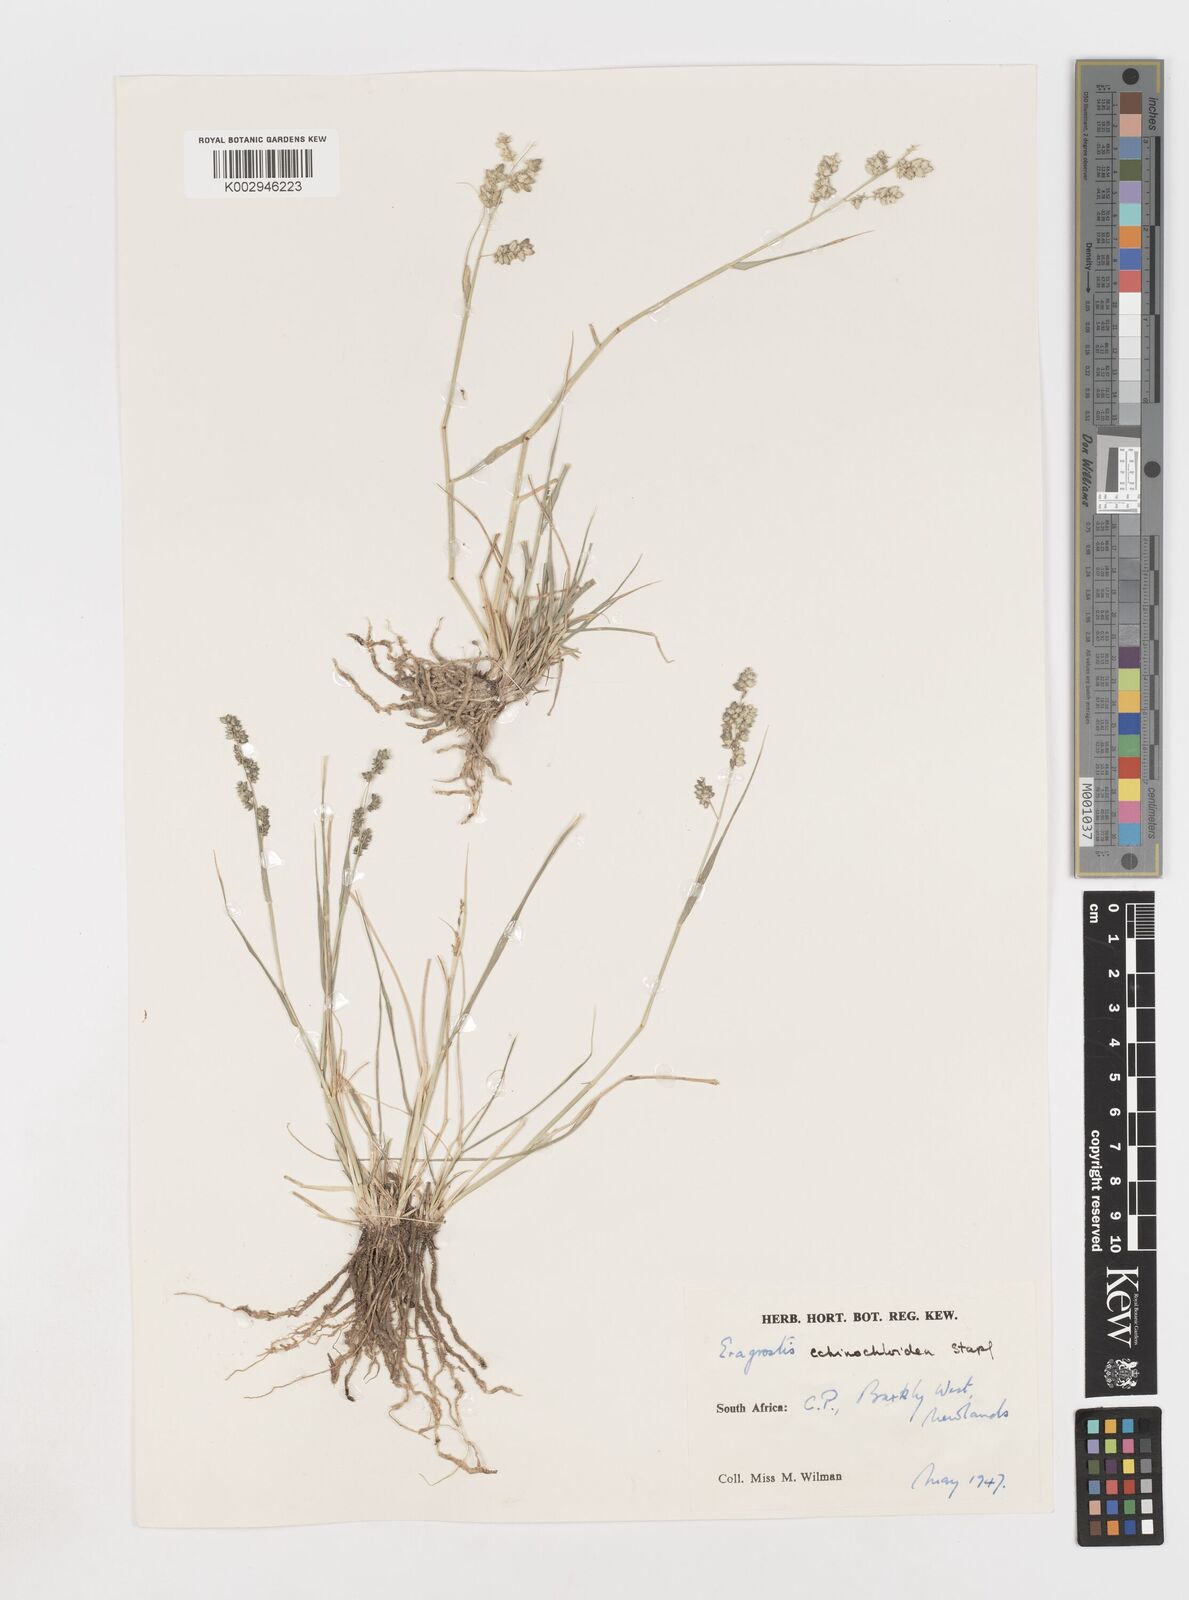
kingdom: Plantae
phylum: Tracheophyta
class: Liliopsida
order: Poales
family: Poaceae
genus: Eragrostis
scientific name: Eragrostis echinochloidea
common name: African lovegrass
